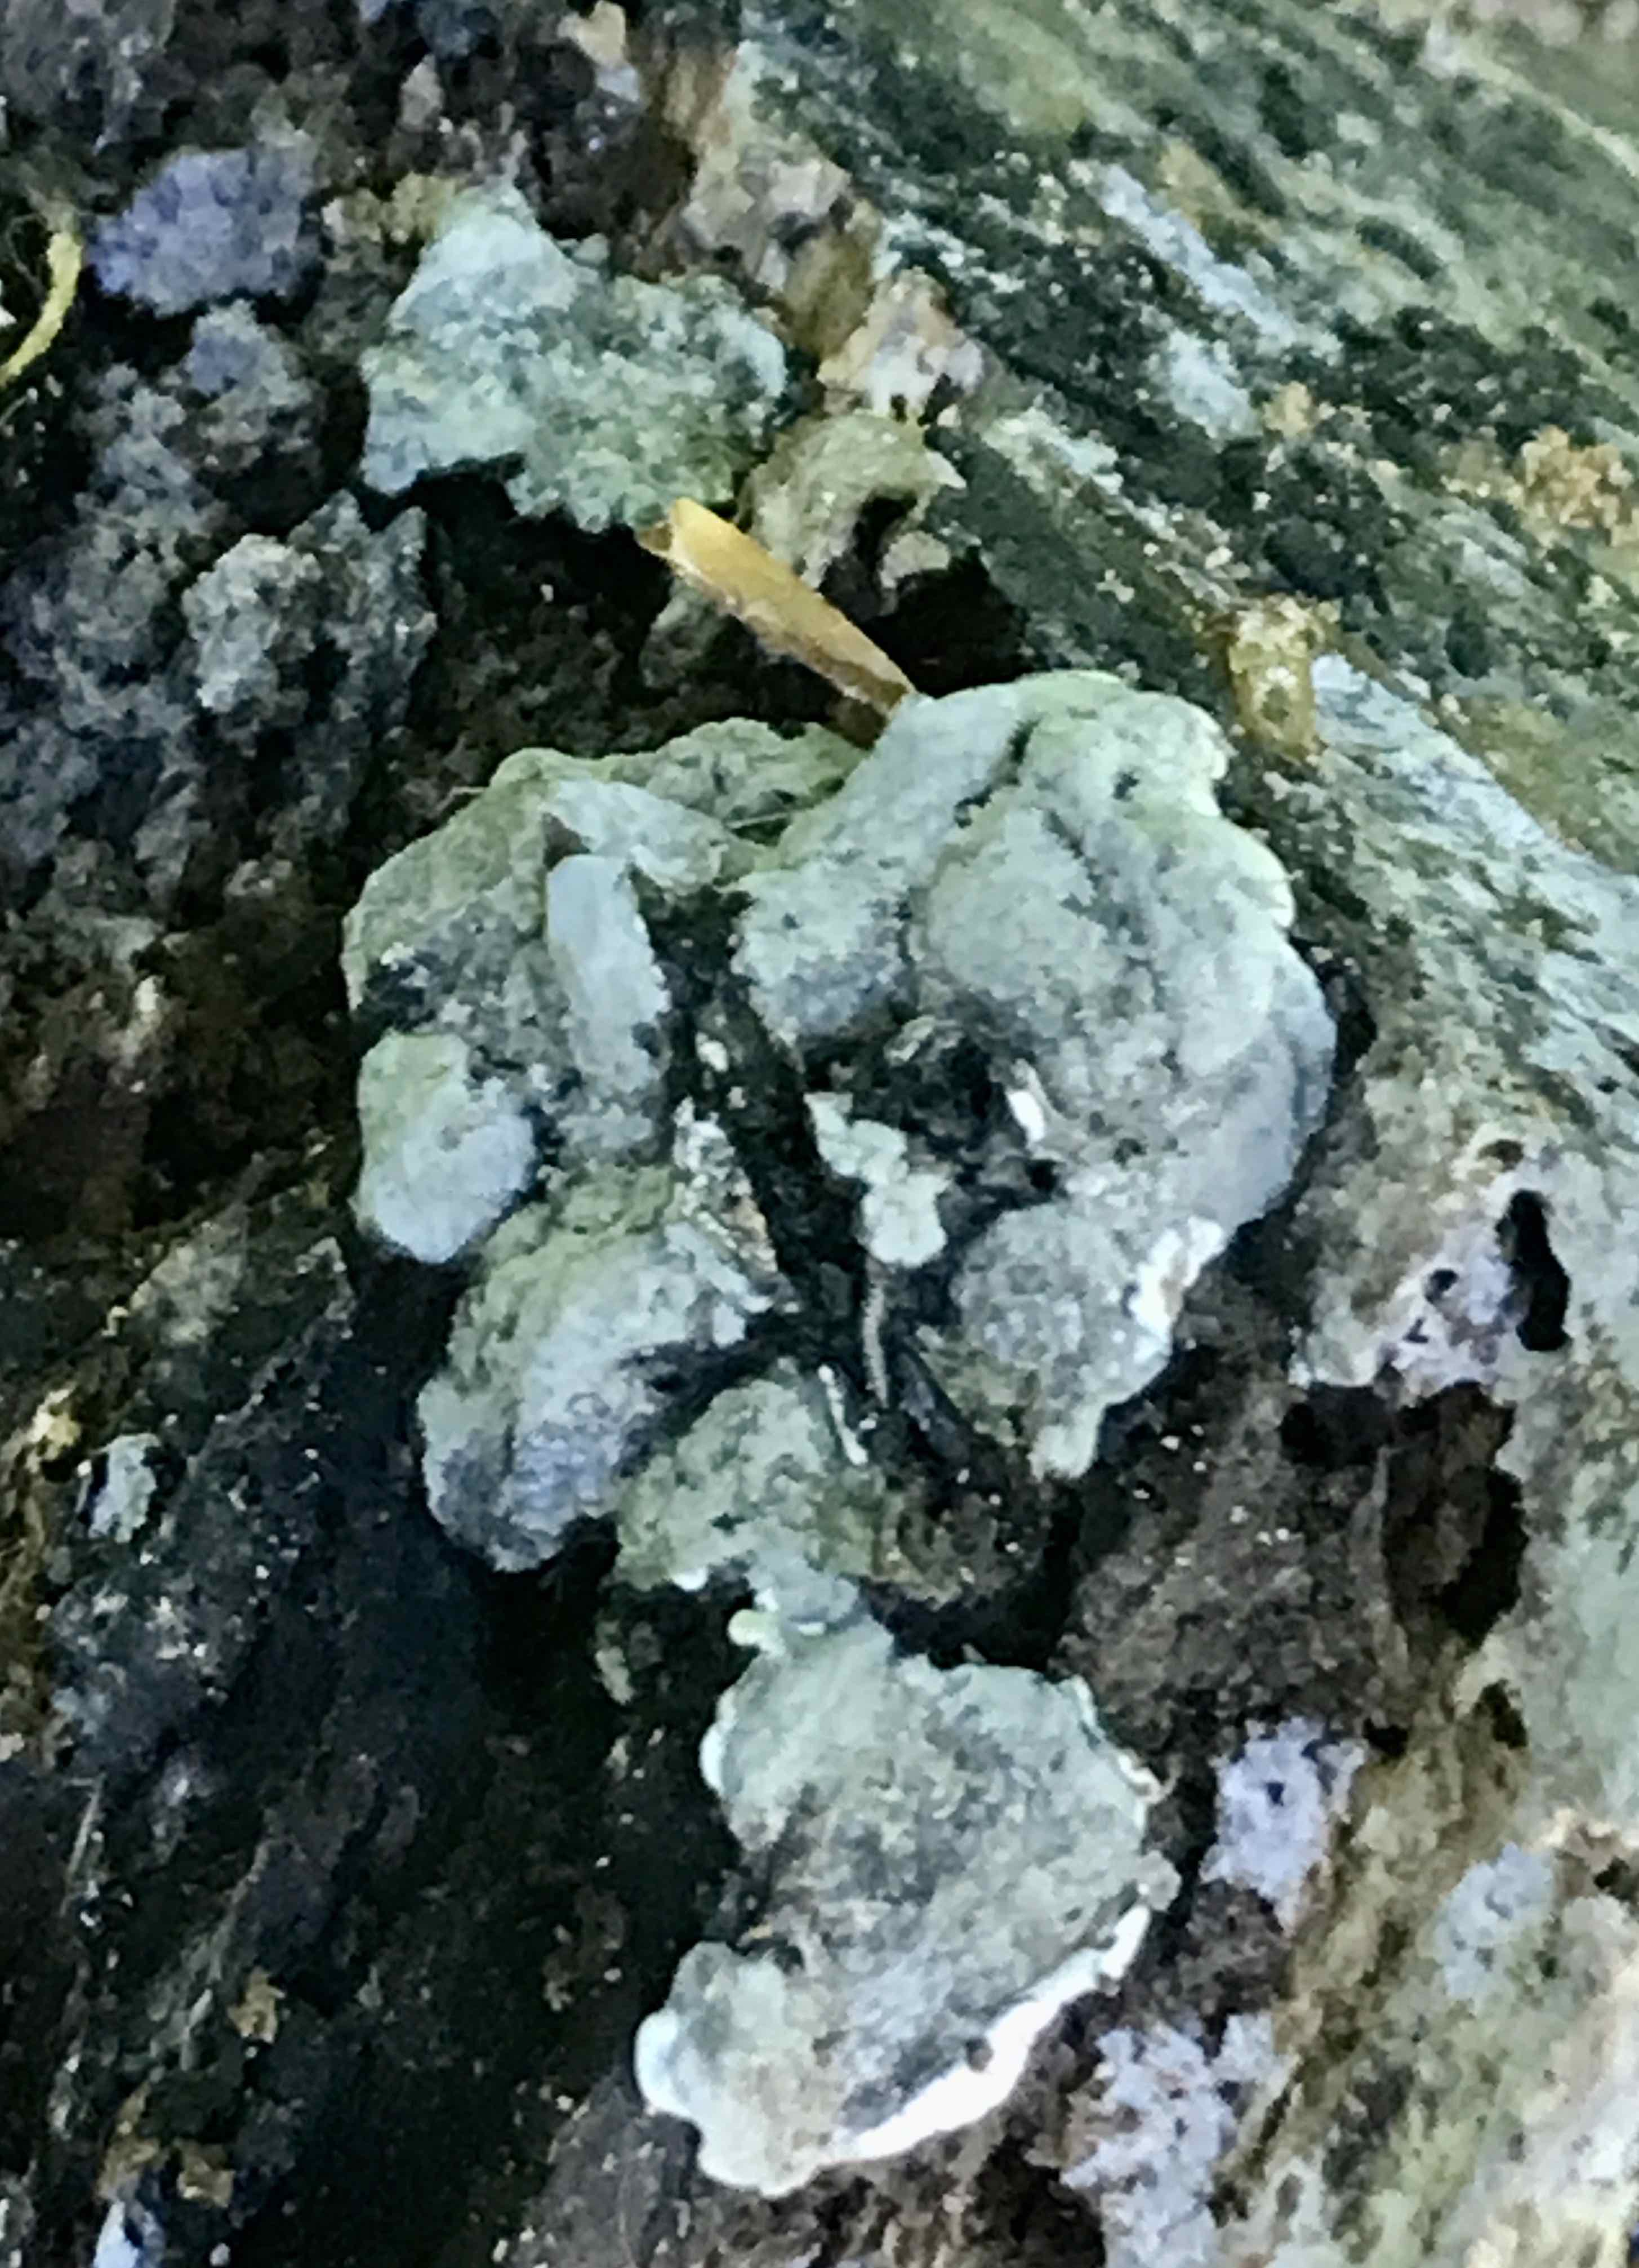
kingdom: Fungi
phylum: Ascomycota
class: Sordariomycetes
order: Xylariales
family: Xylariaceae
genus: Kretzschmaria
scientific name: Kretzschmaria deusta
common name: stor kulsvamp
